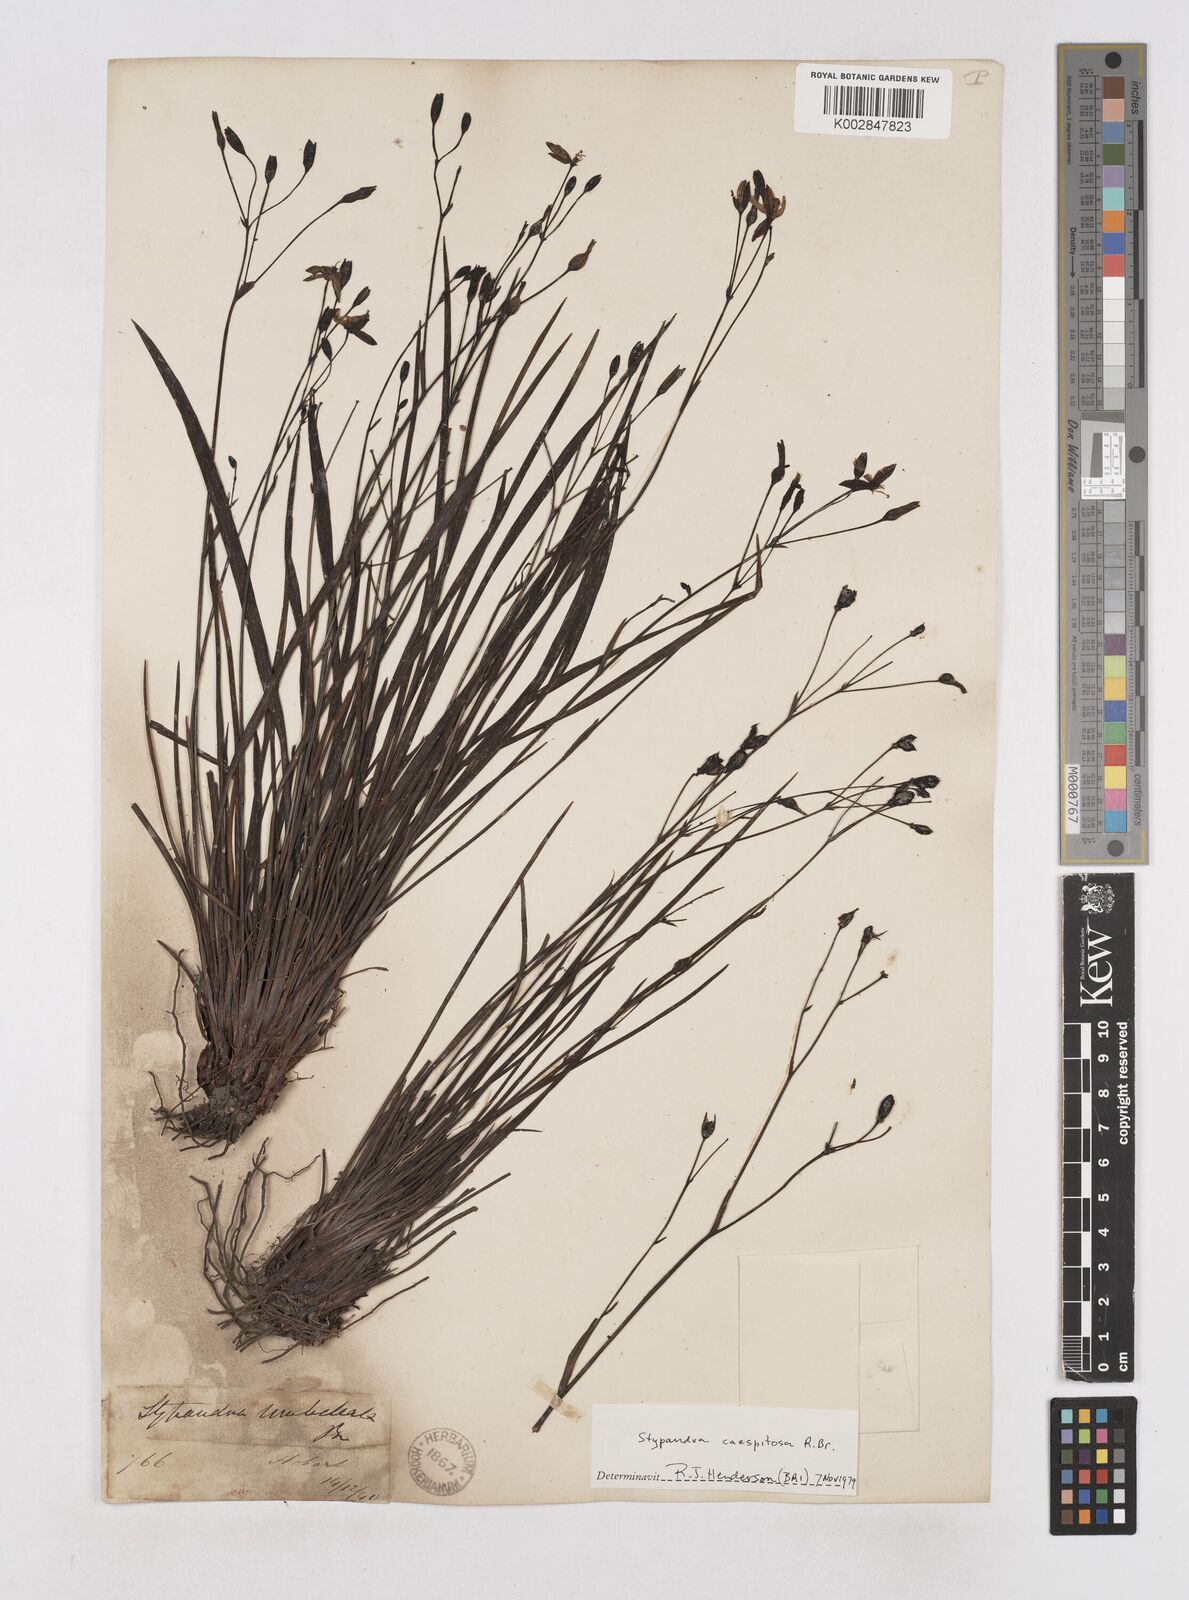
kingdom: Plantae
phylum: Tracheophyta
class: Liliopsida
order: Asparagales
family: Asphodelaceae
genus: Thelionema
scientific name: Thelionema umbellatum
